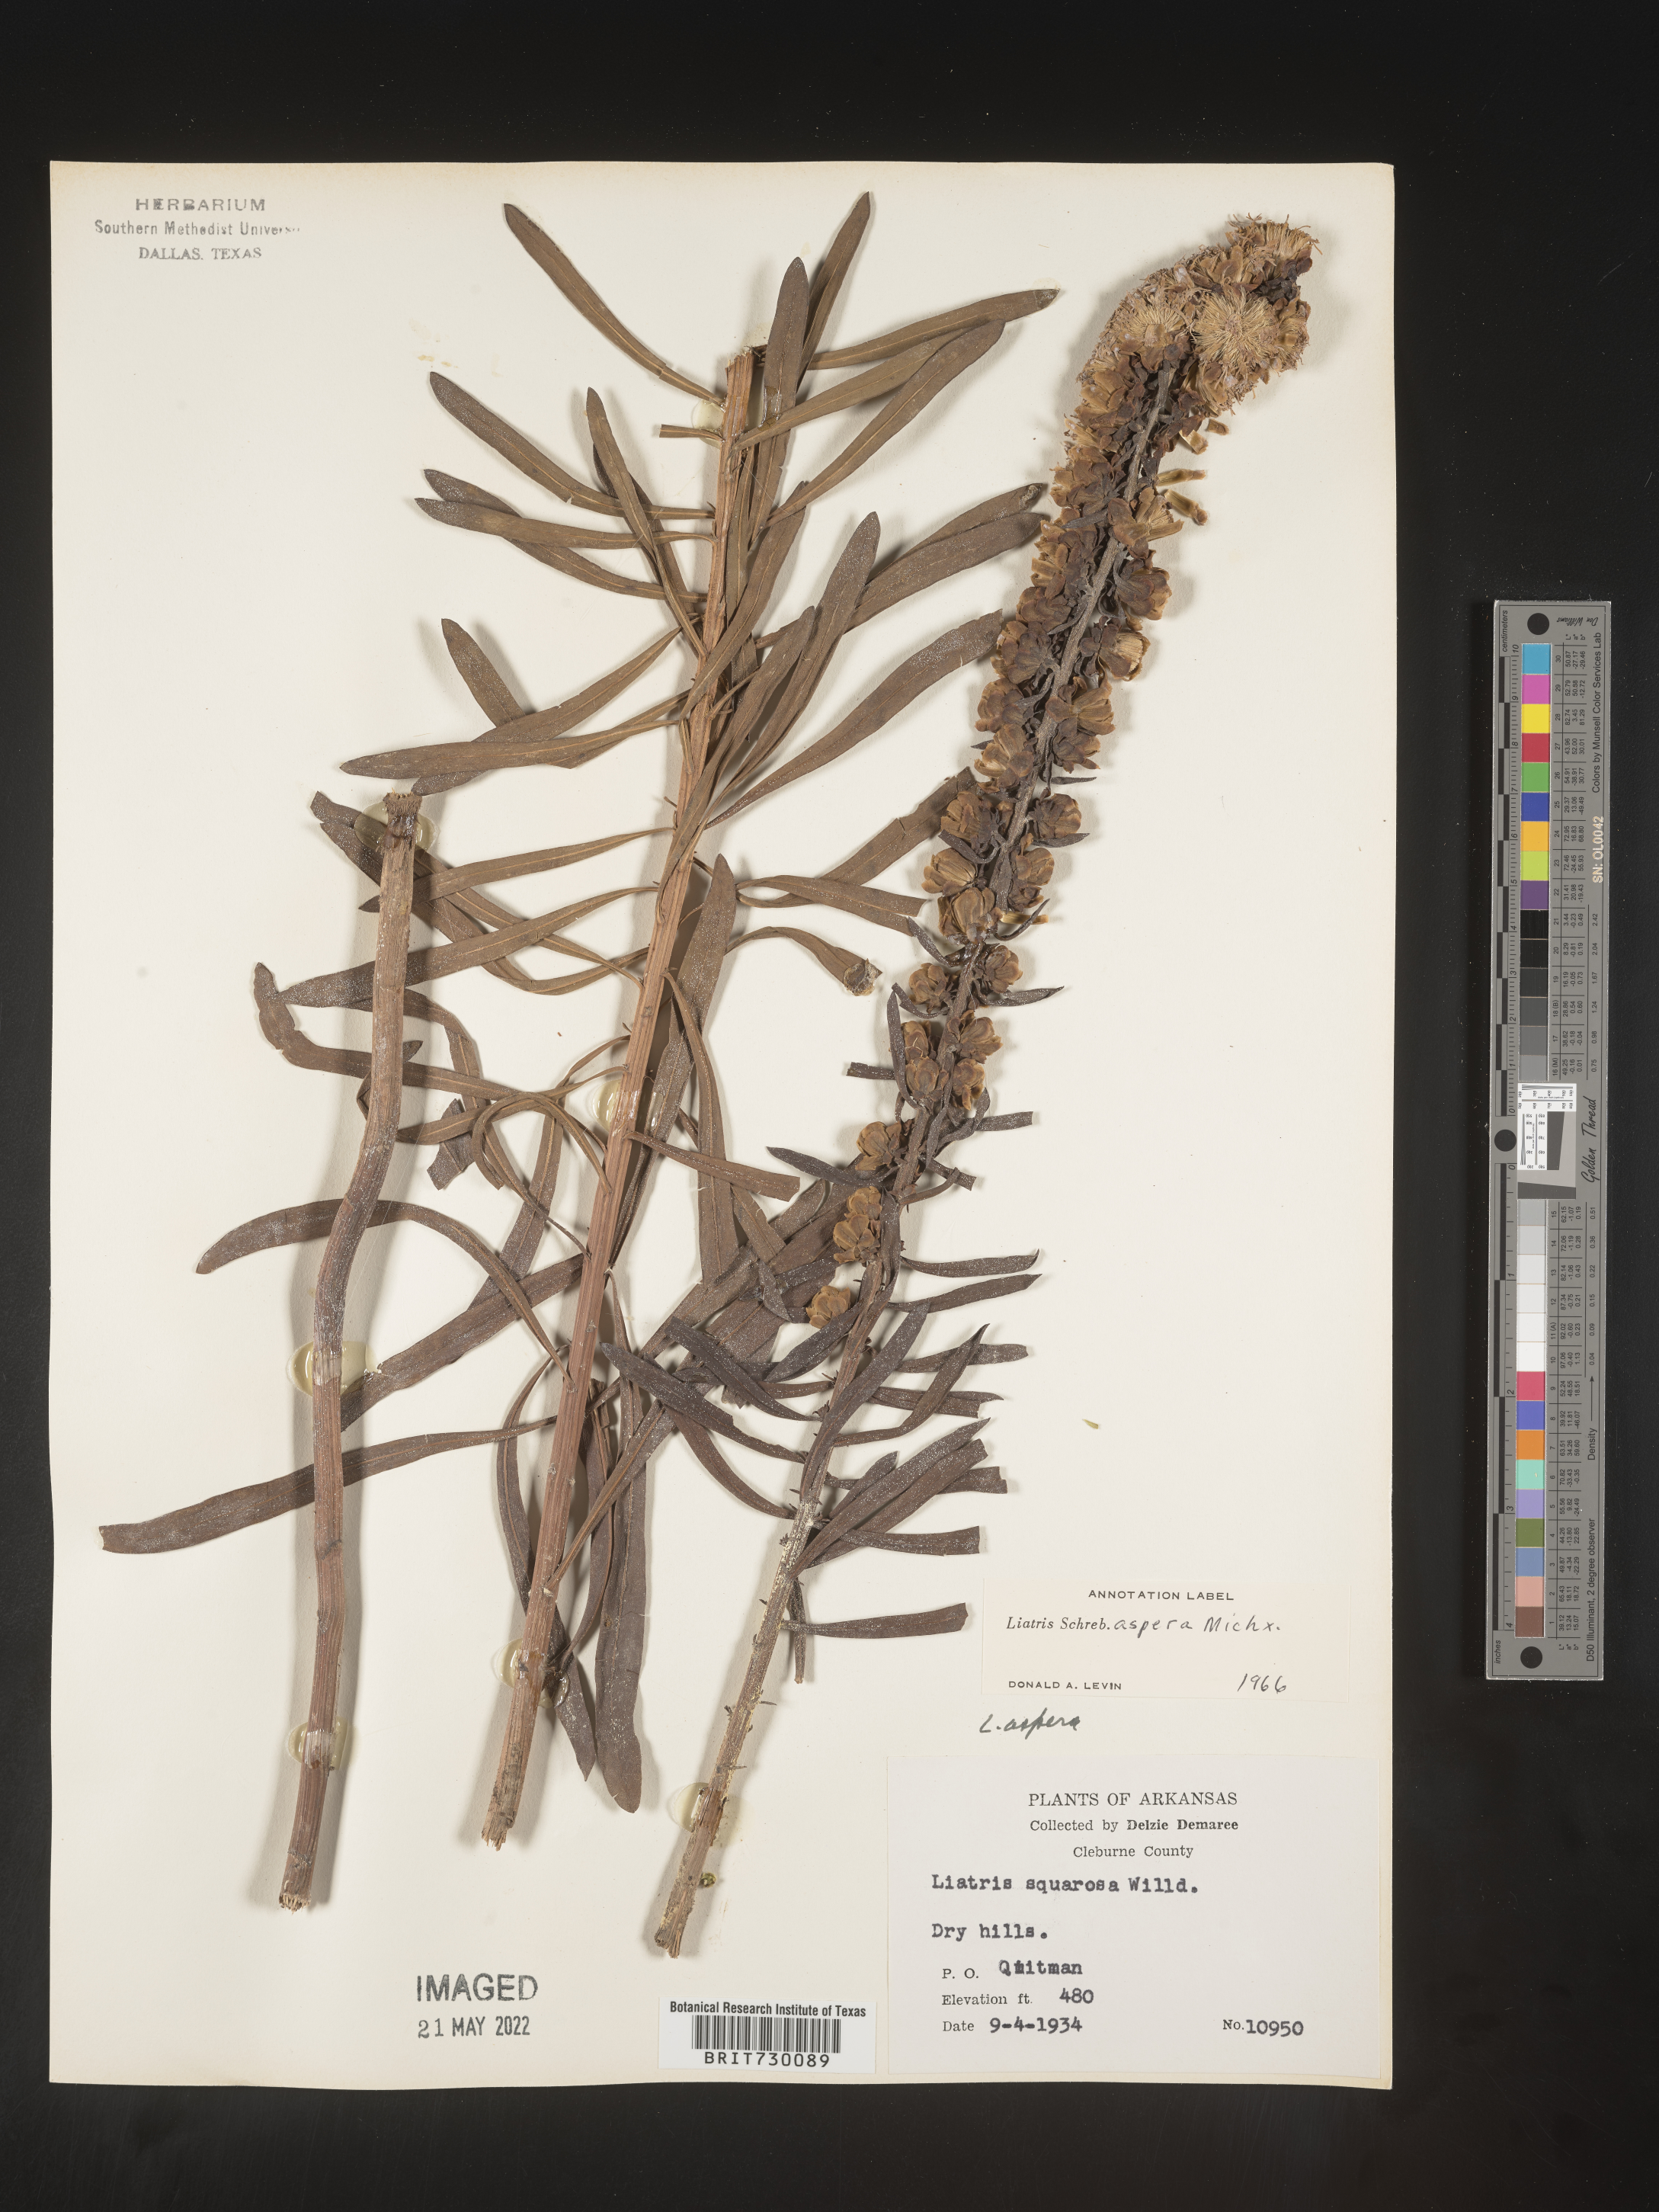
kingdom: Plantae
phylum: Tracheophyta
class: Magnoliopsida
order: Asterales
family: Asteraceae
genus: Liatris
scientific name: Liatris aspera
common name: Lacerate blazing-star
